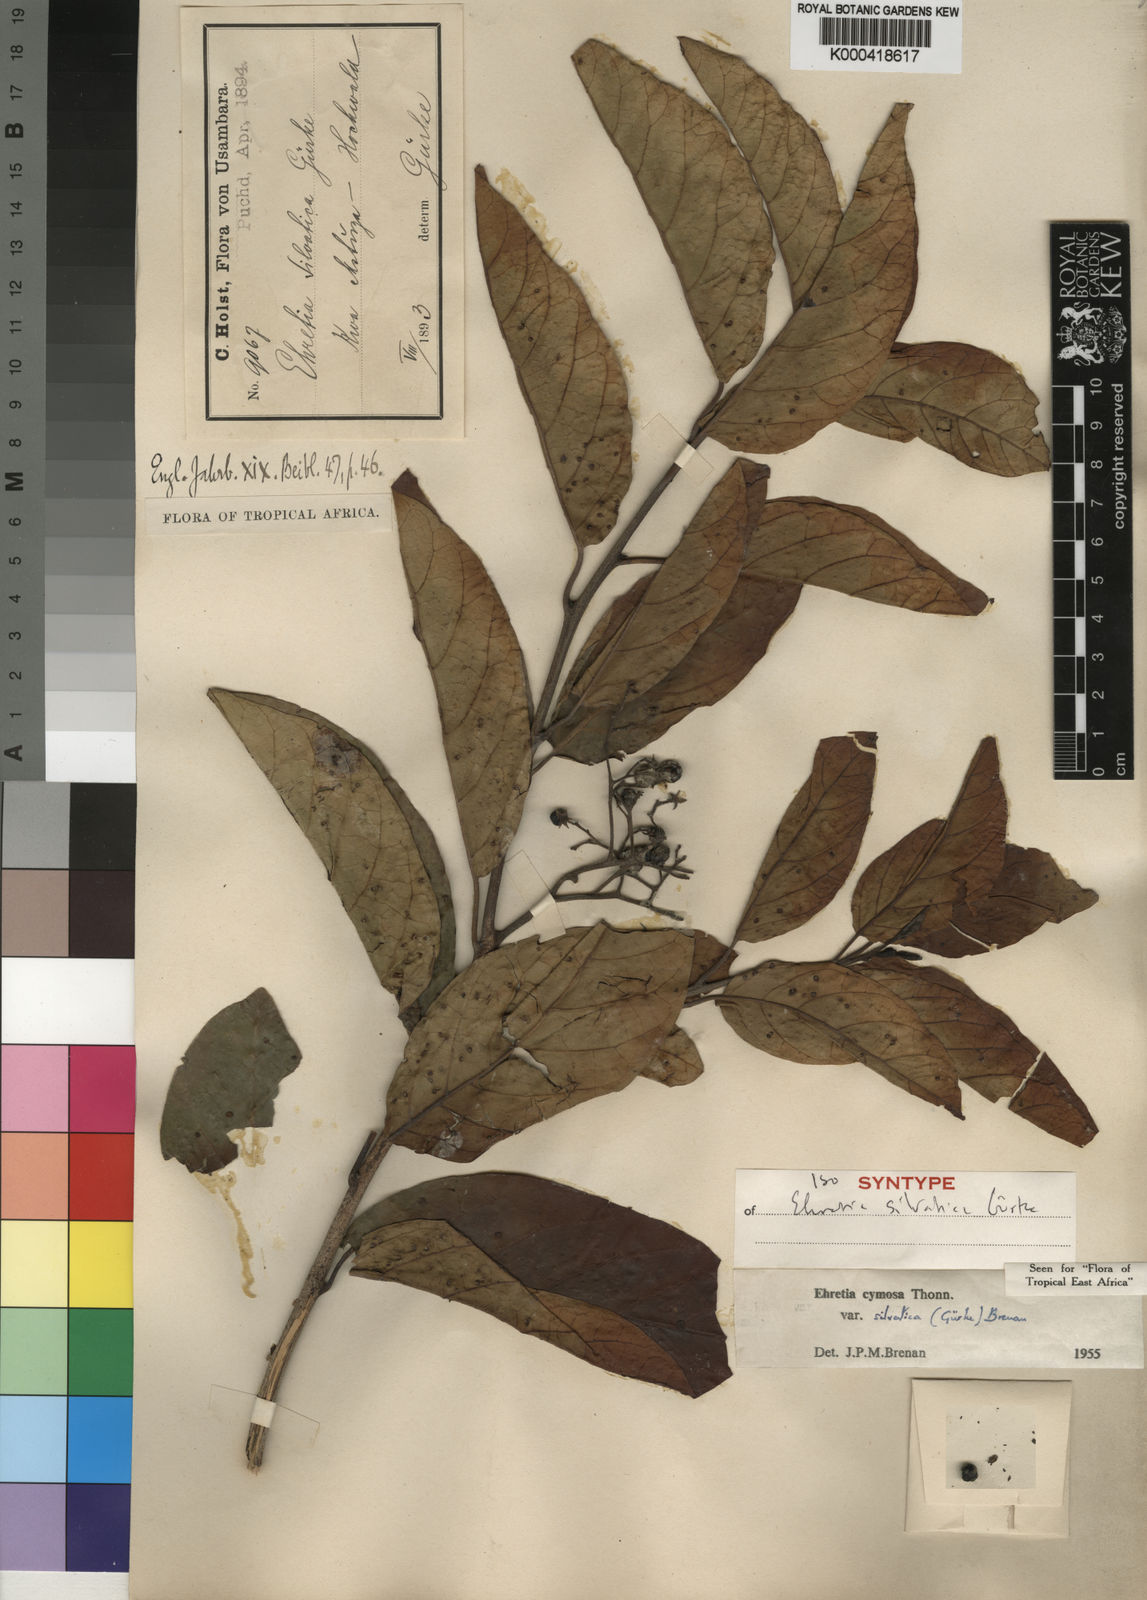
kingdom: Plantae
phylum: Tracheophyta
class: Magnoliopsida
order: Boraginales
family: Ehretiaceae
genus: Ehretia
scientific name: Ehretia cymosa
